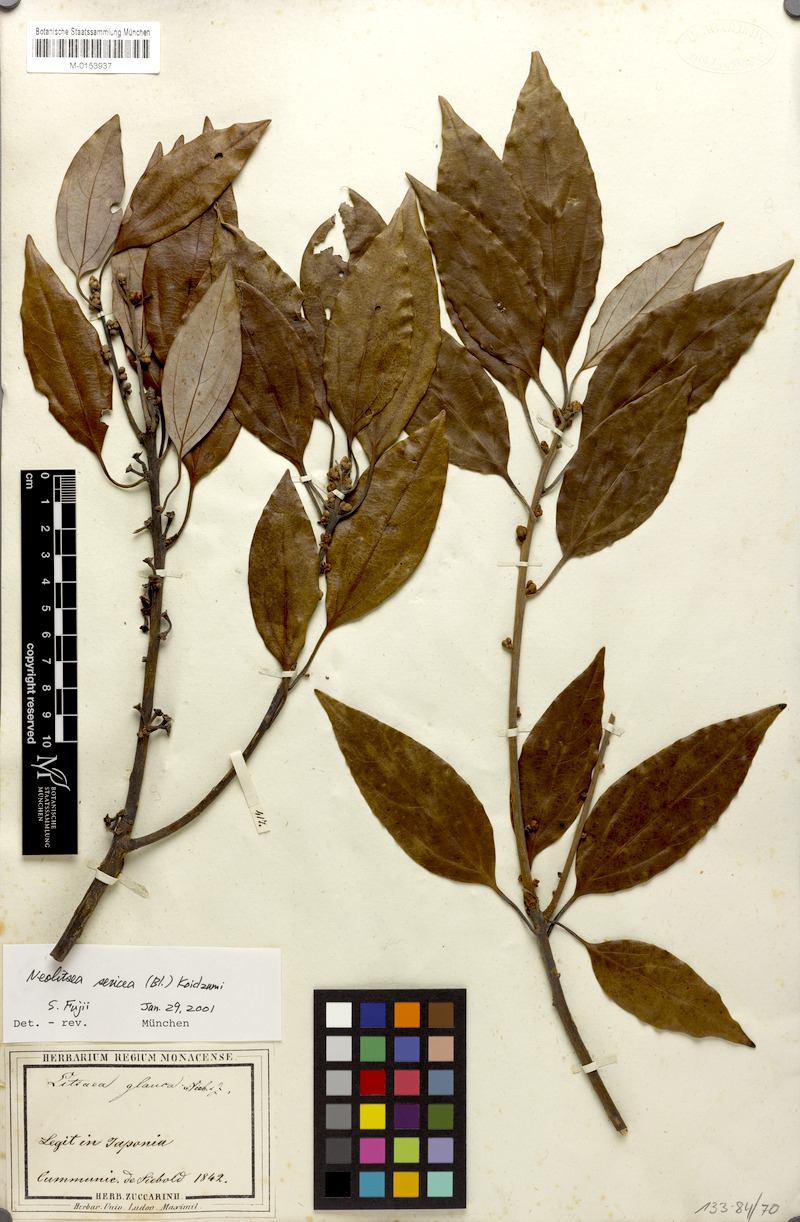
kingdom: Plantae
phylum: Tracheophyta
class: Magnoliopsida
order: Laurales
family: Lauraceae
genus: Neolitsea
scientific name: Neolitsea sericea
